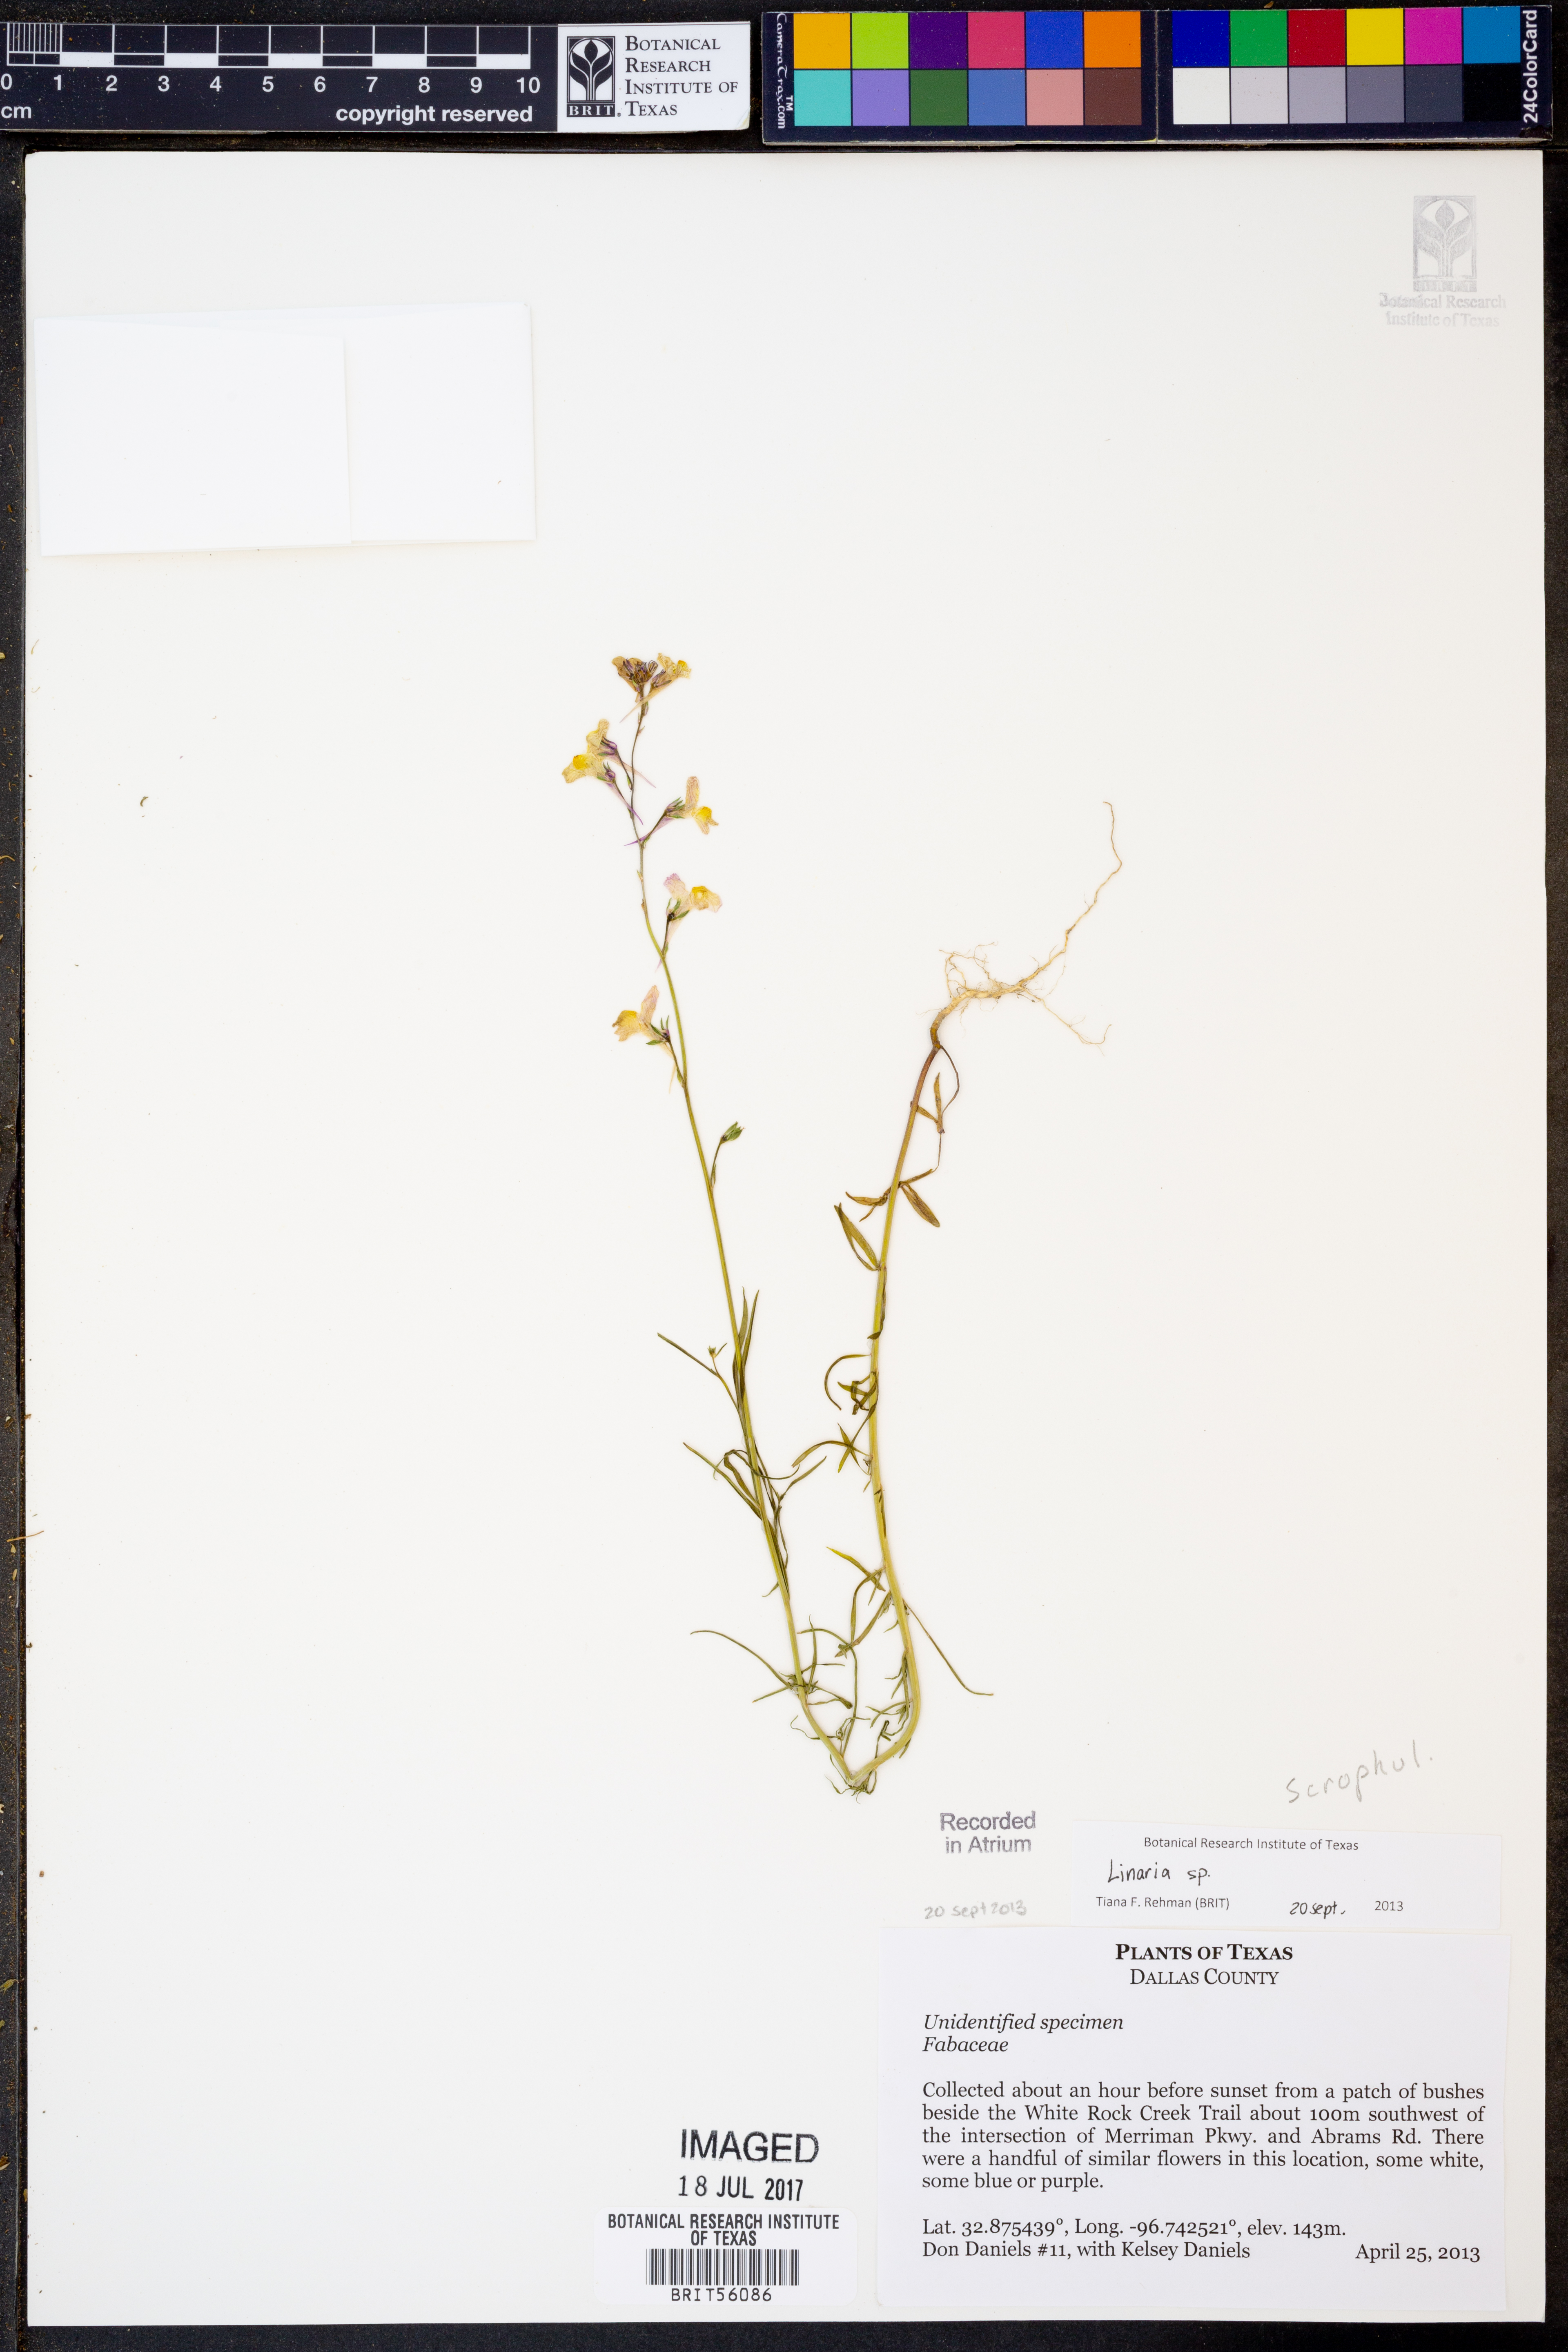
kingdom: Plantae
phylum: Tracheophyta
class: Magnoliopsida
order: Lamiales
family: Plantaginaceae
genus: Linaria
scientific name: Linaria
